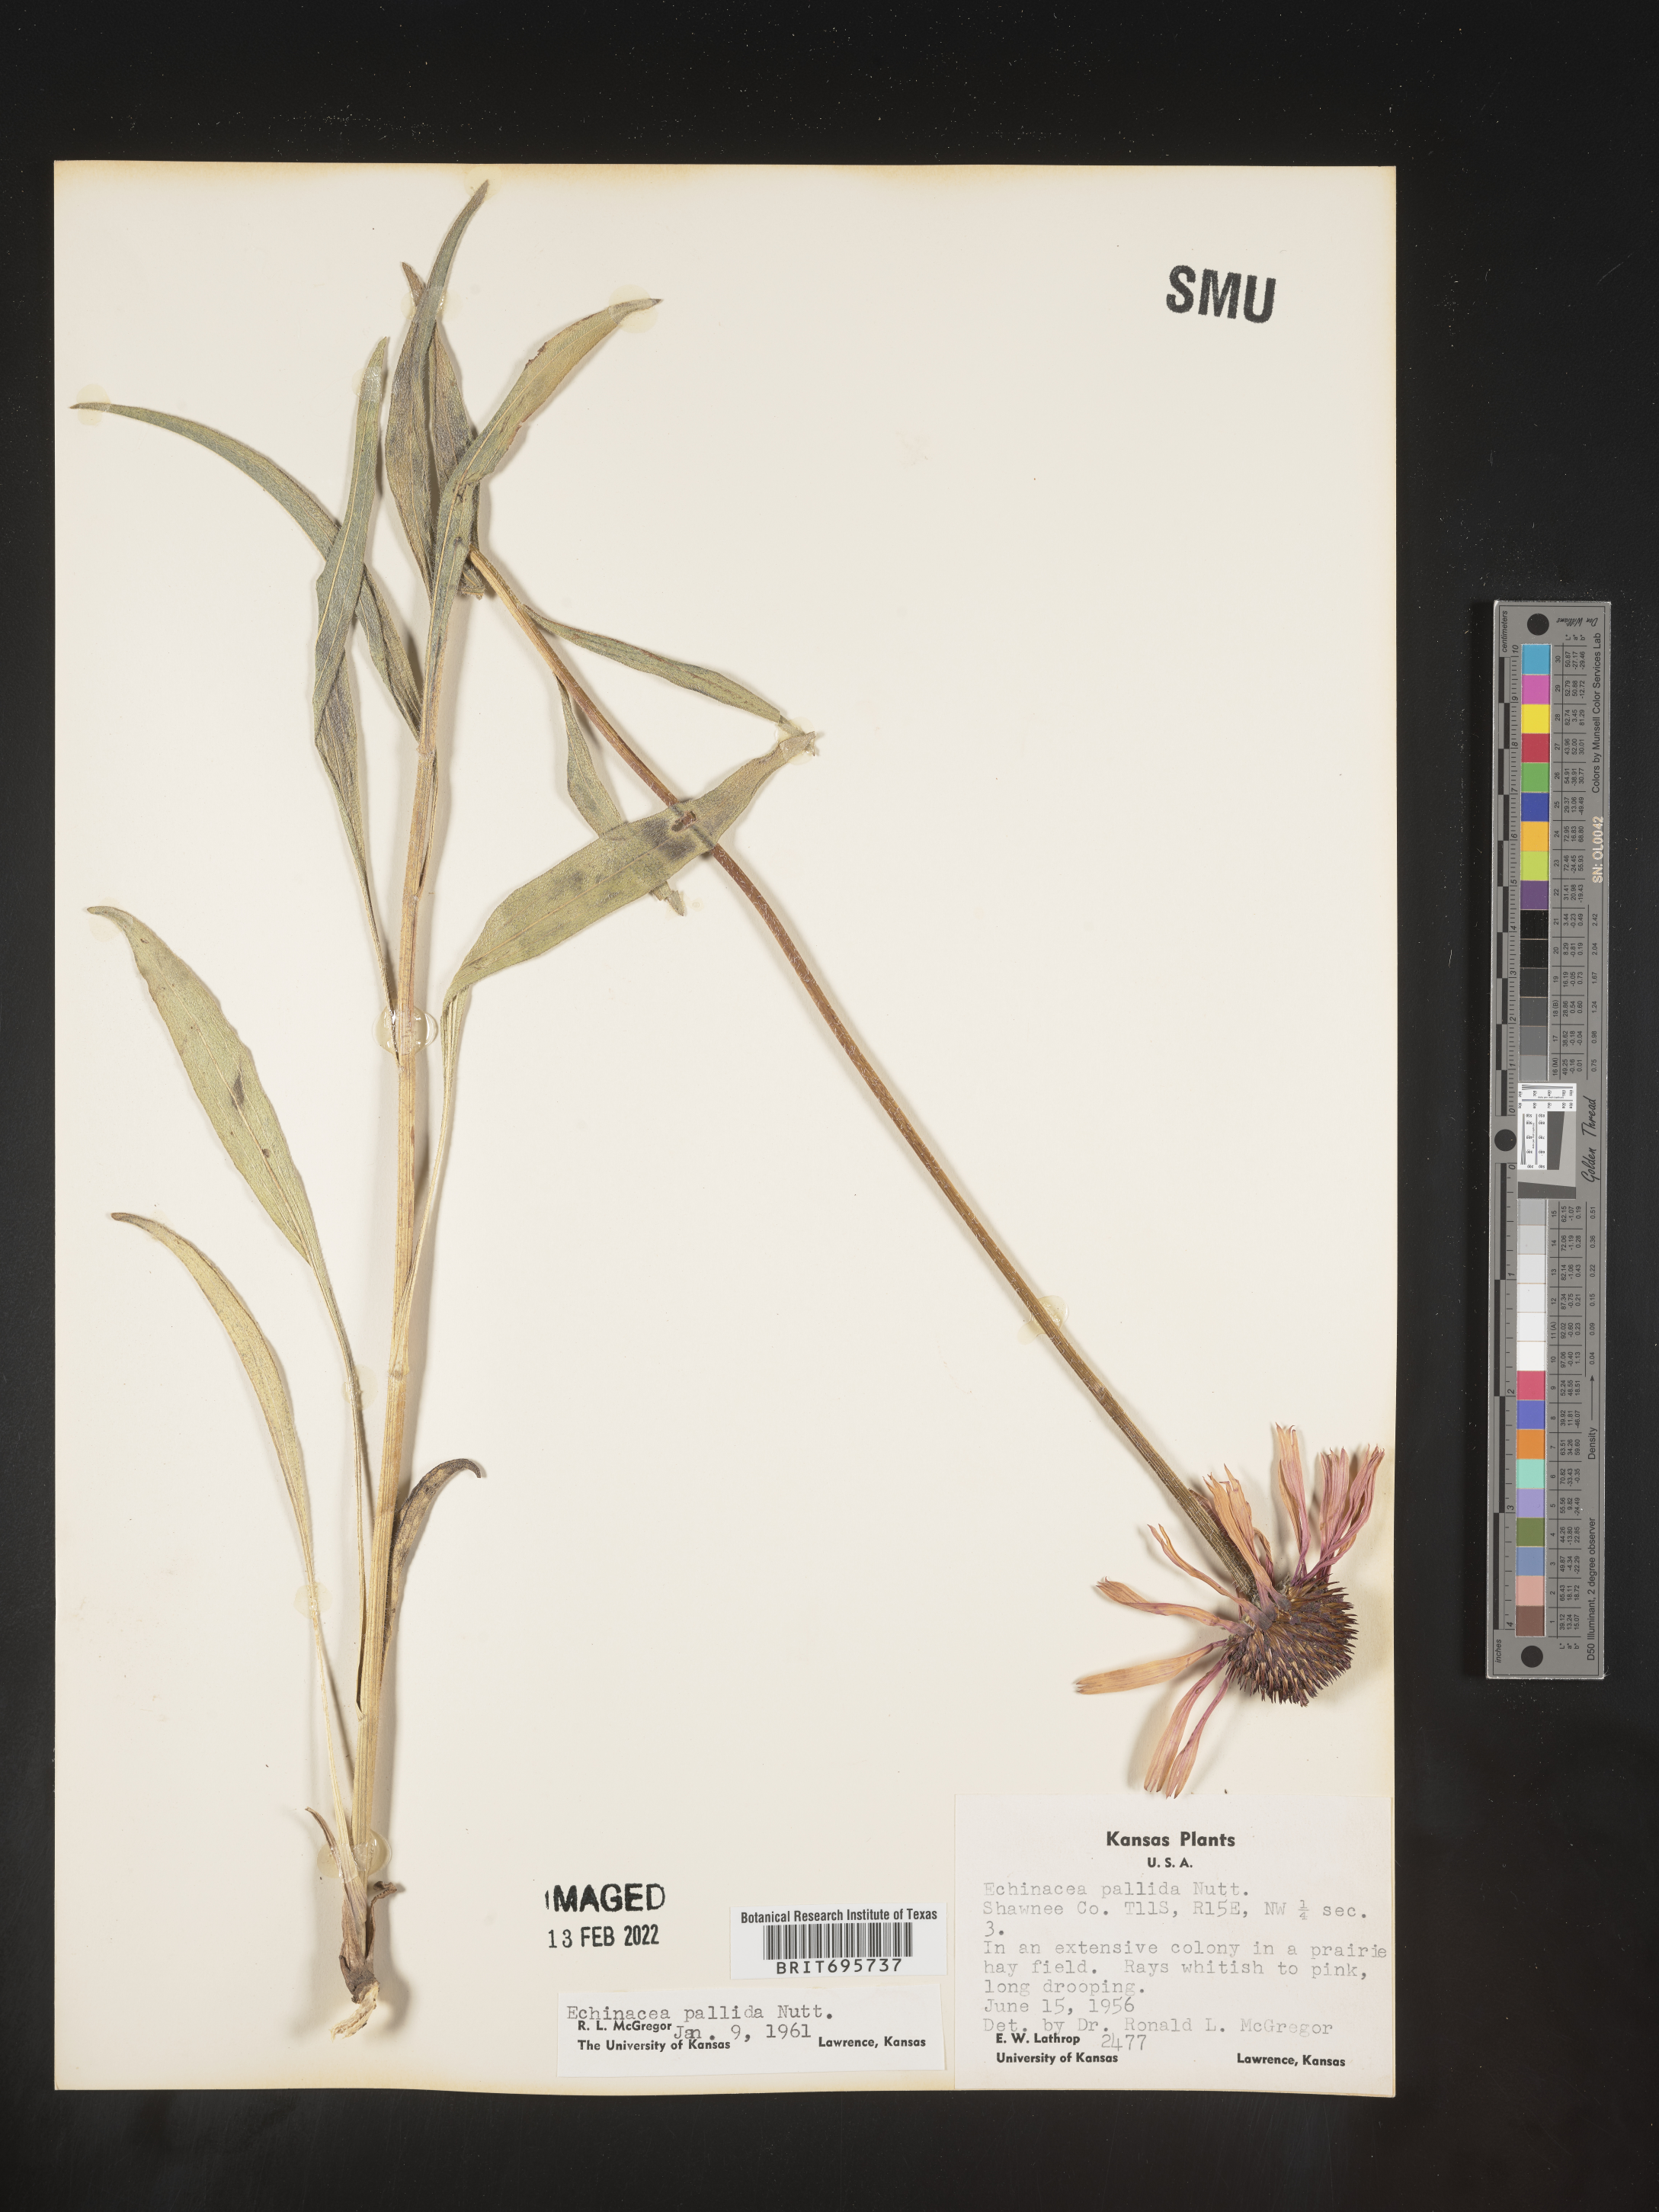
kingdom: Plantae
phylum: Tracheophyta
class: Magnoliopsida
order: Asterales
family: Asteraceae
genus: Echinacea
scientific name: Echinacea pallida
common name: Pale echinacea
